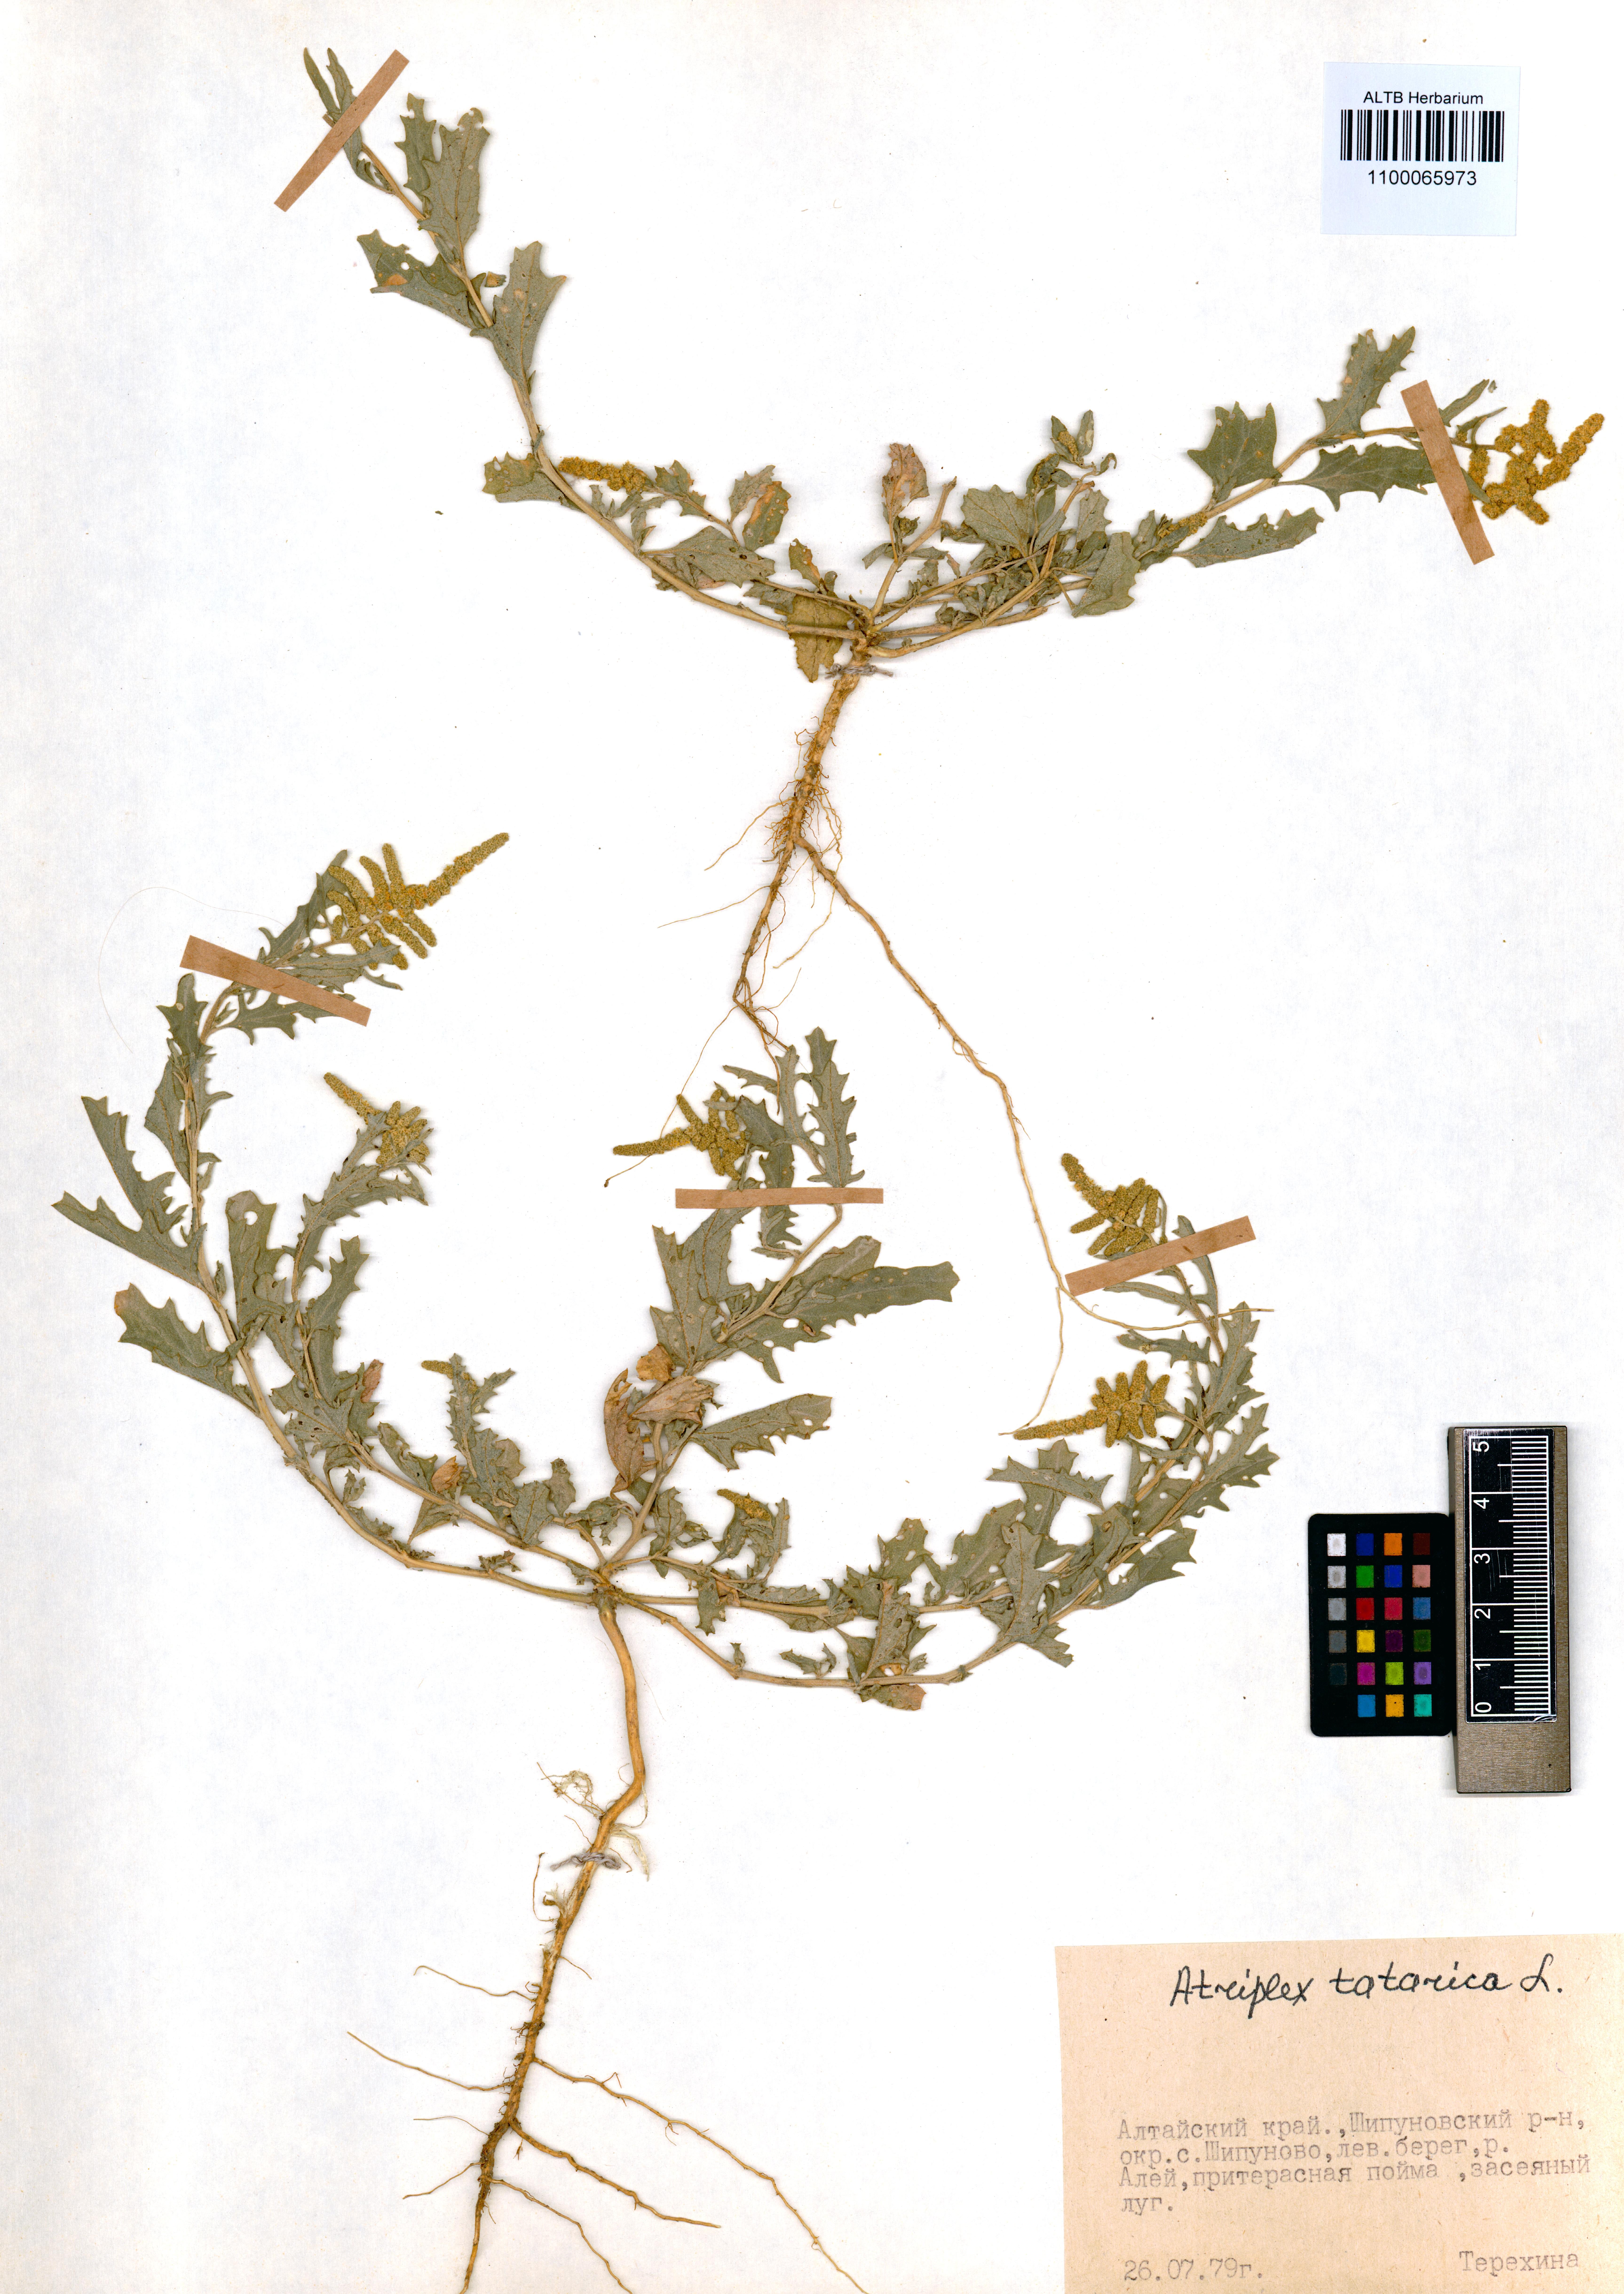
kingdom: Plantae
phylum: Tracheophyta
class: Magnoliopsida
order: Caryophyllales
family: Amaranthaceae
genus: Atriplex
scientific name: Atriplex tatarica
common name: Tatarian orache
